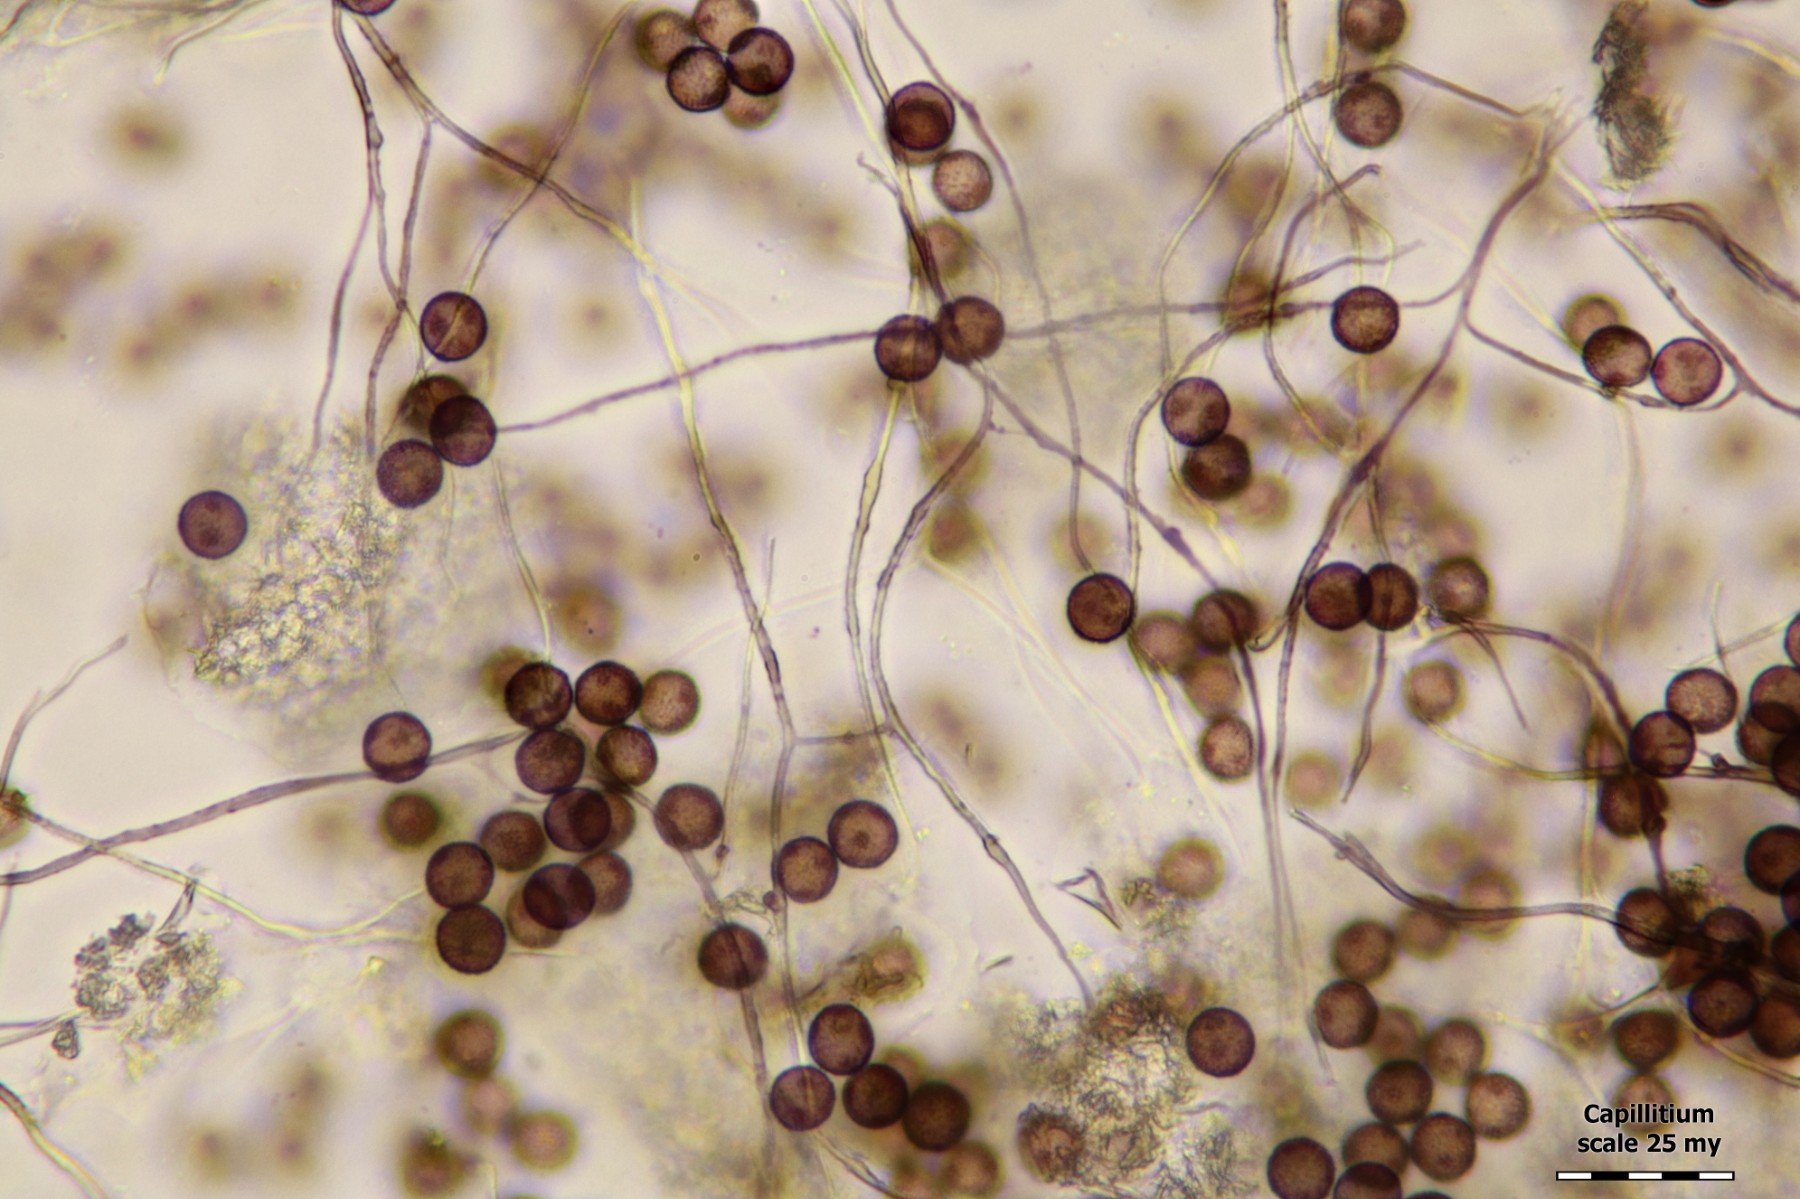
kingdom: Protozoa
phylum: Mycetozoa
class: Myxomycetes
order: Physarales
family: Didymiaceae
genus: Didymium
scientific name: Didymium squamulosum
